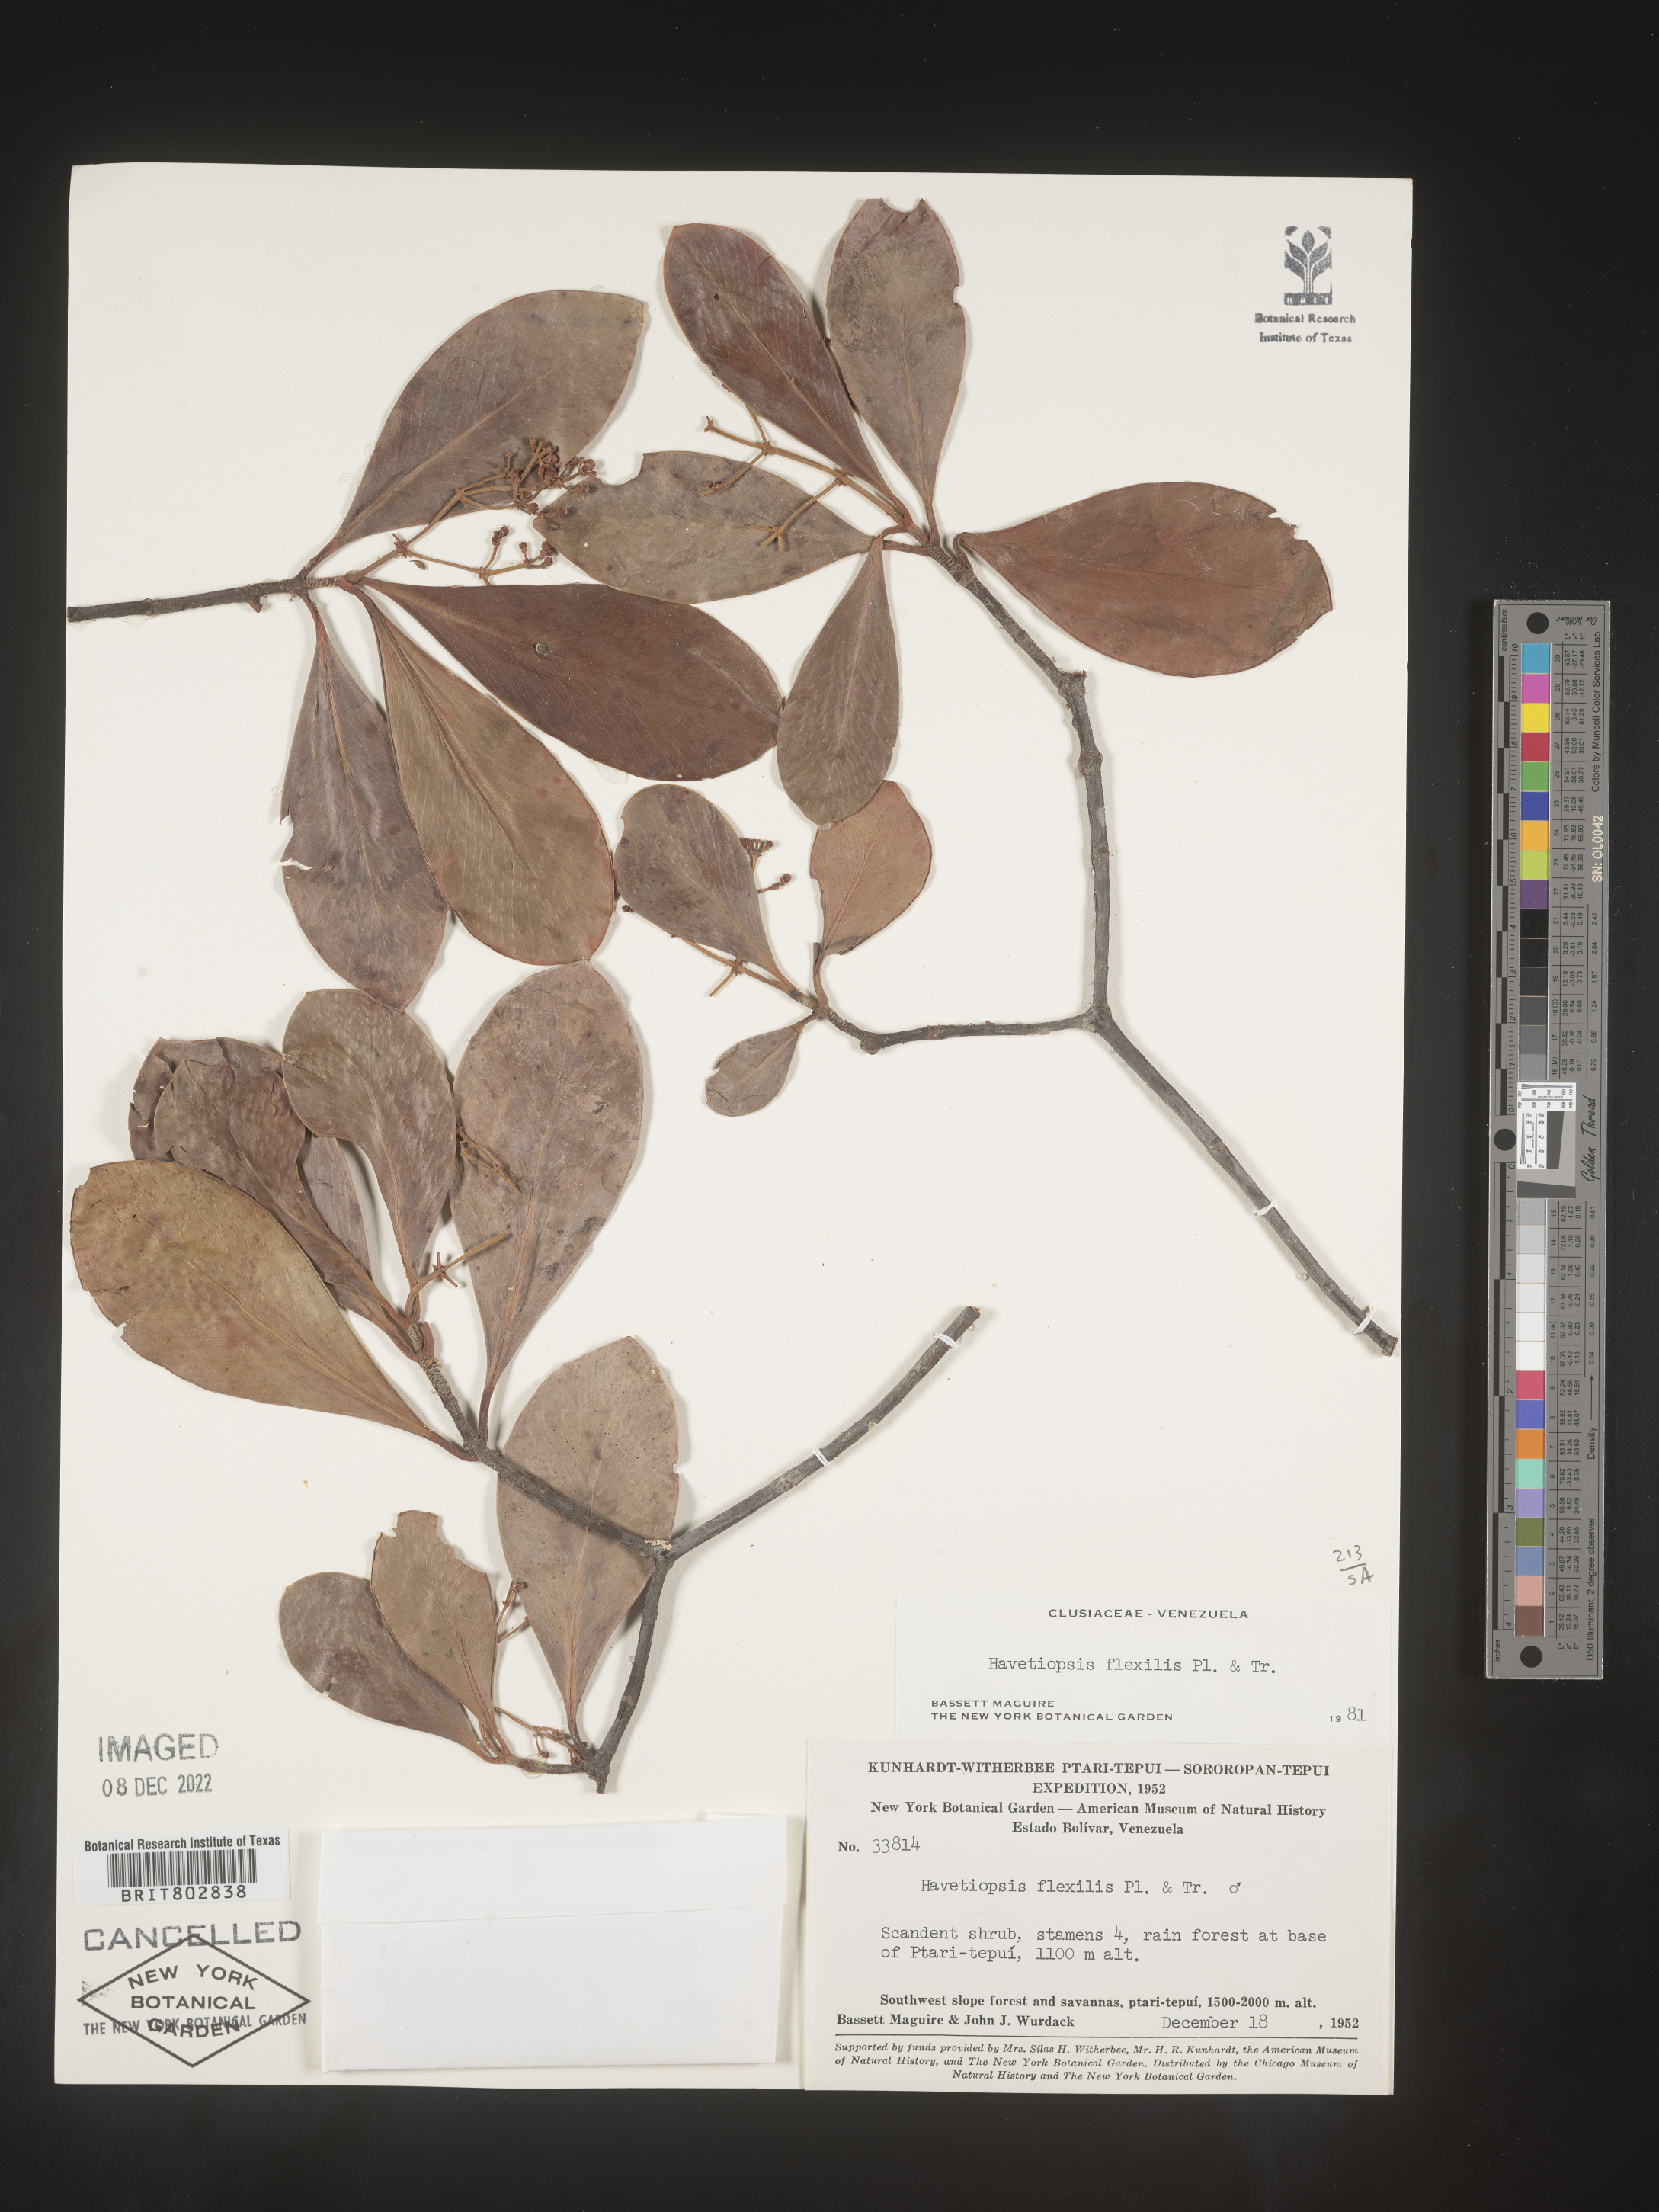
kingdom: Plantae
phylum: Tracheophyta
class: Magnoliopsida
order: Malpighiales
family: Clusiaceae
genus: Havetiopsis
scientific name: Havetiopsis
